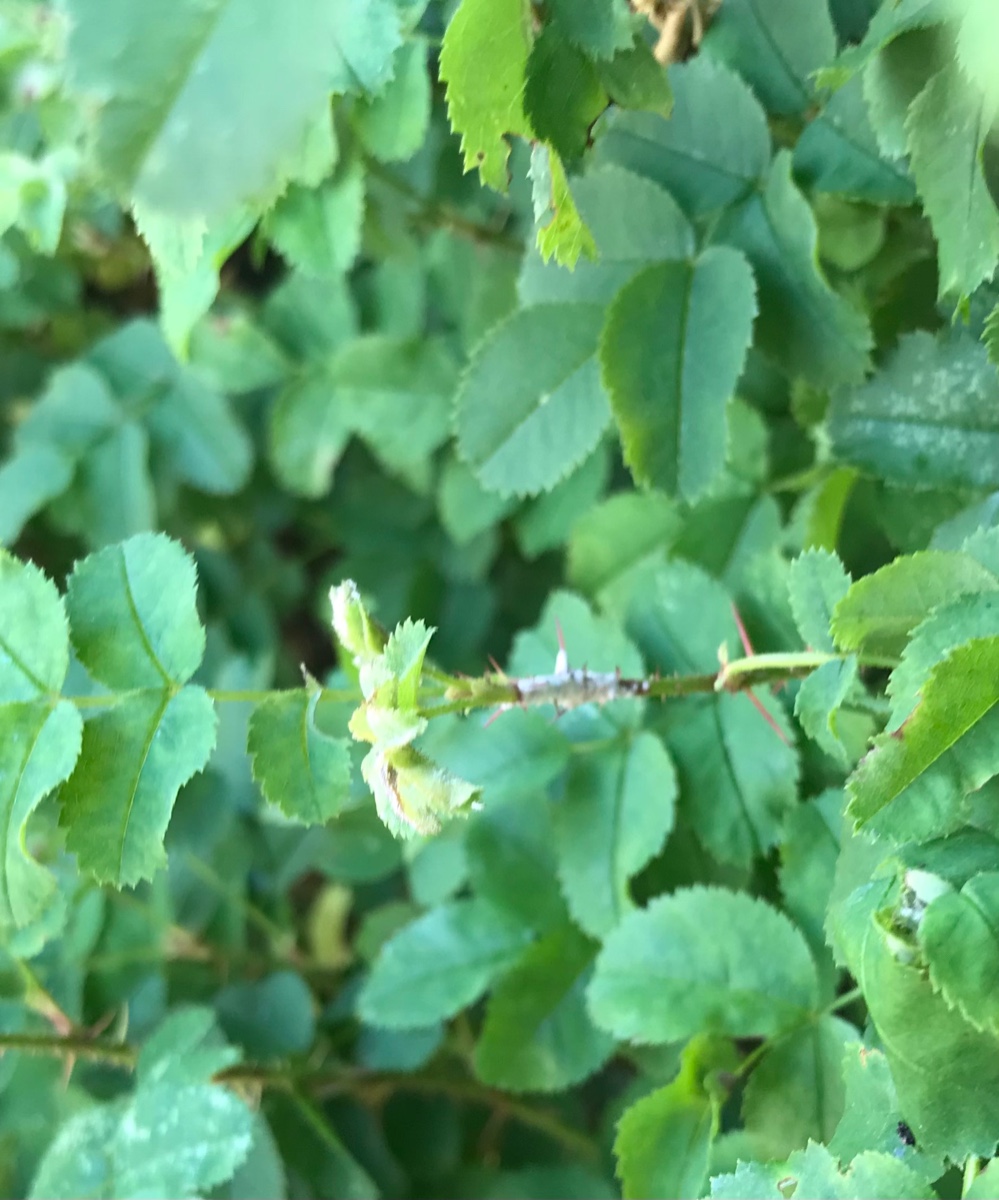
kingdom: Fungi
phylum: Ascomycota
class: Leotiomycetes
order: Helotiales
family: Erysiphaceae
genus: Podosphaera
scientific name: Podosphaera pannosa
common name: Rose mildew
